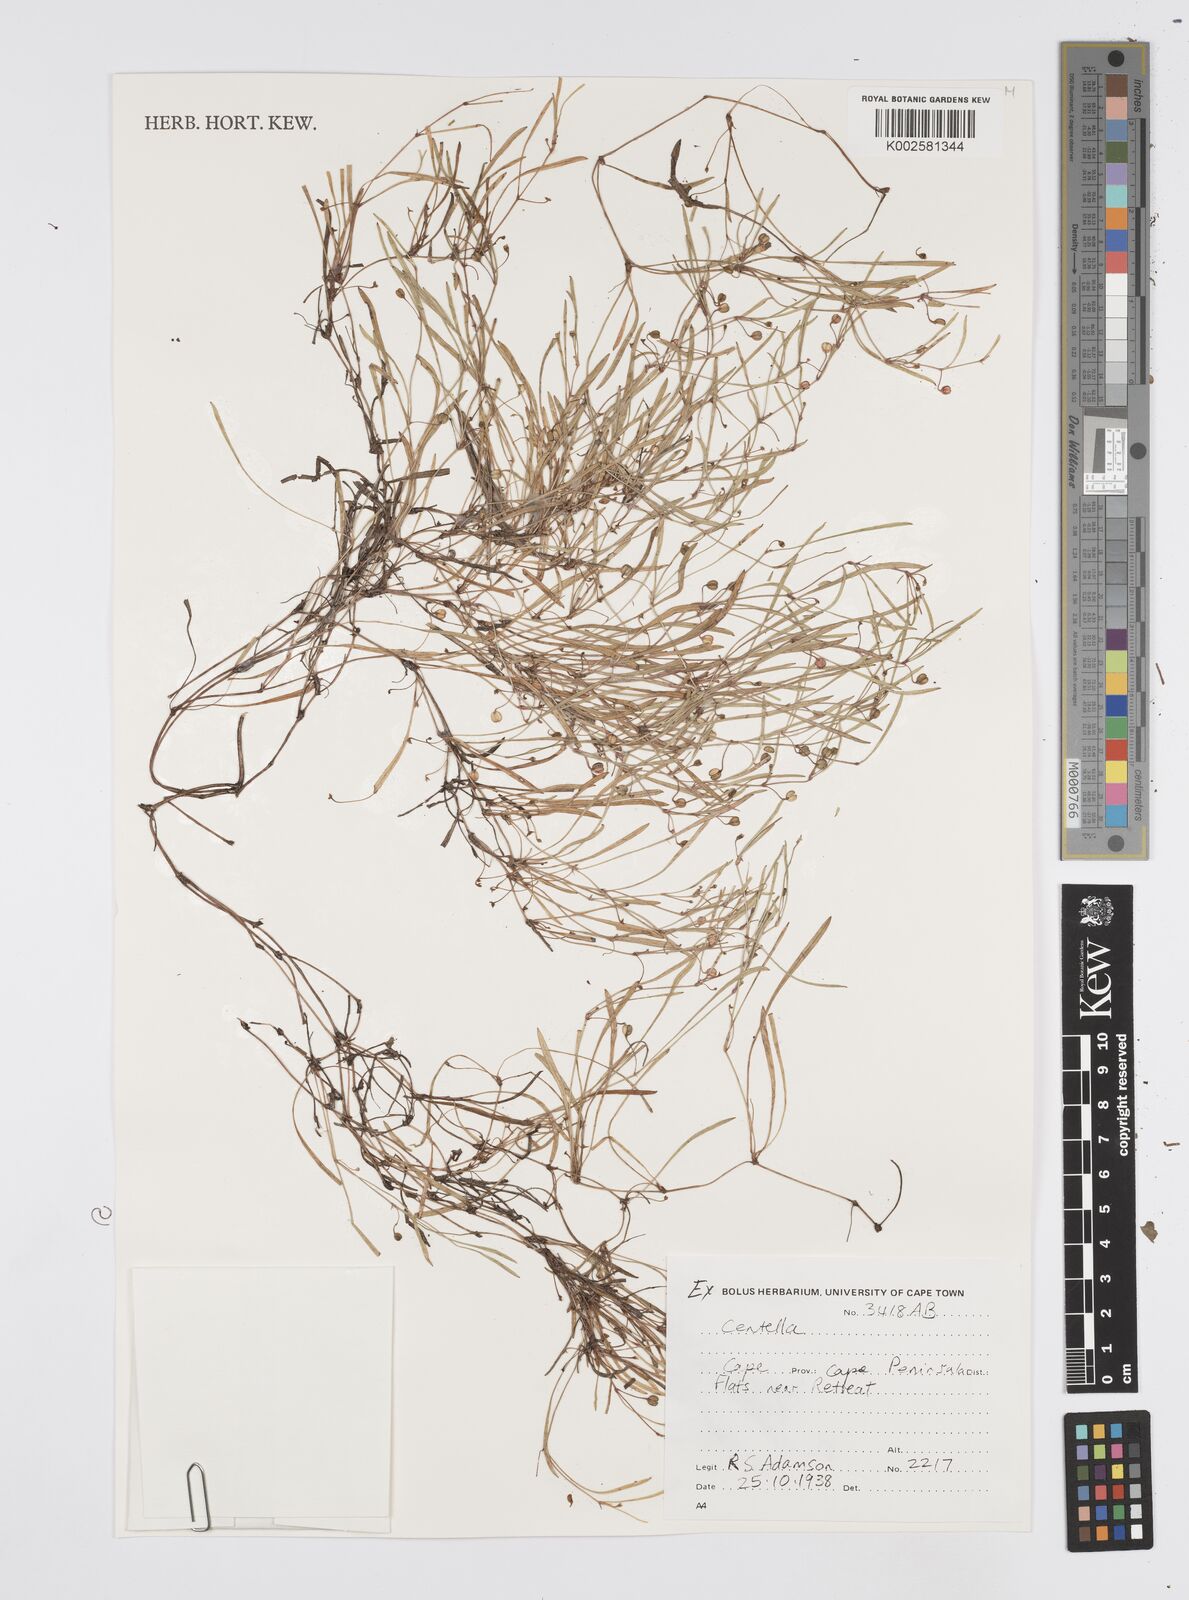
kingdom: Plantae
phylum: Tracheophyta
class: Magnoliopsida
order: Apiales
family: Apiaceae
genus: Centella
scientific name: Centella
